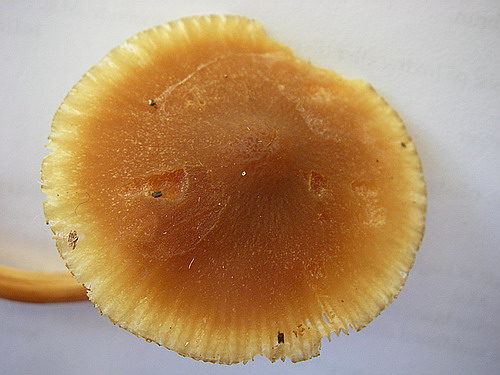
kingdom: Fungi
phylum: Basidiomycota
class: Agaricomycetes
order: Agaricales
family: Pluteaceae
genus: Pluteus
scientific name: Pluteus phlebophorus
